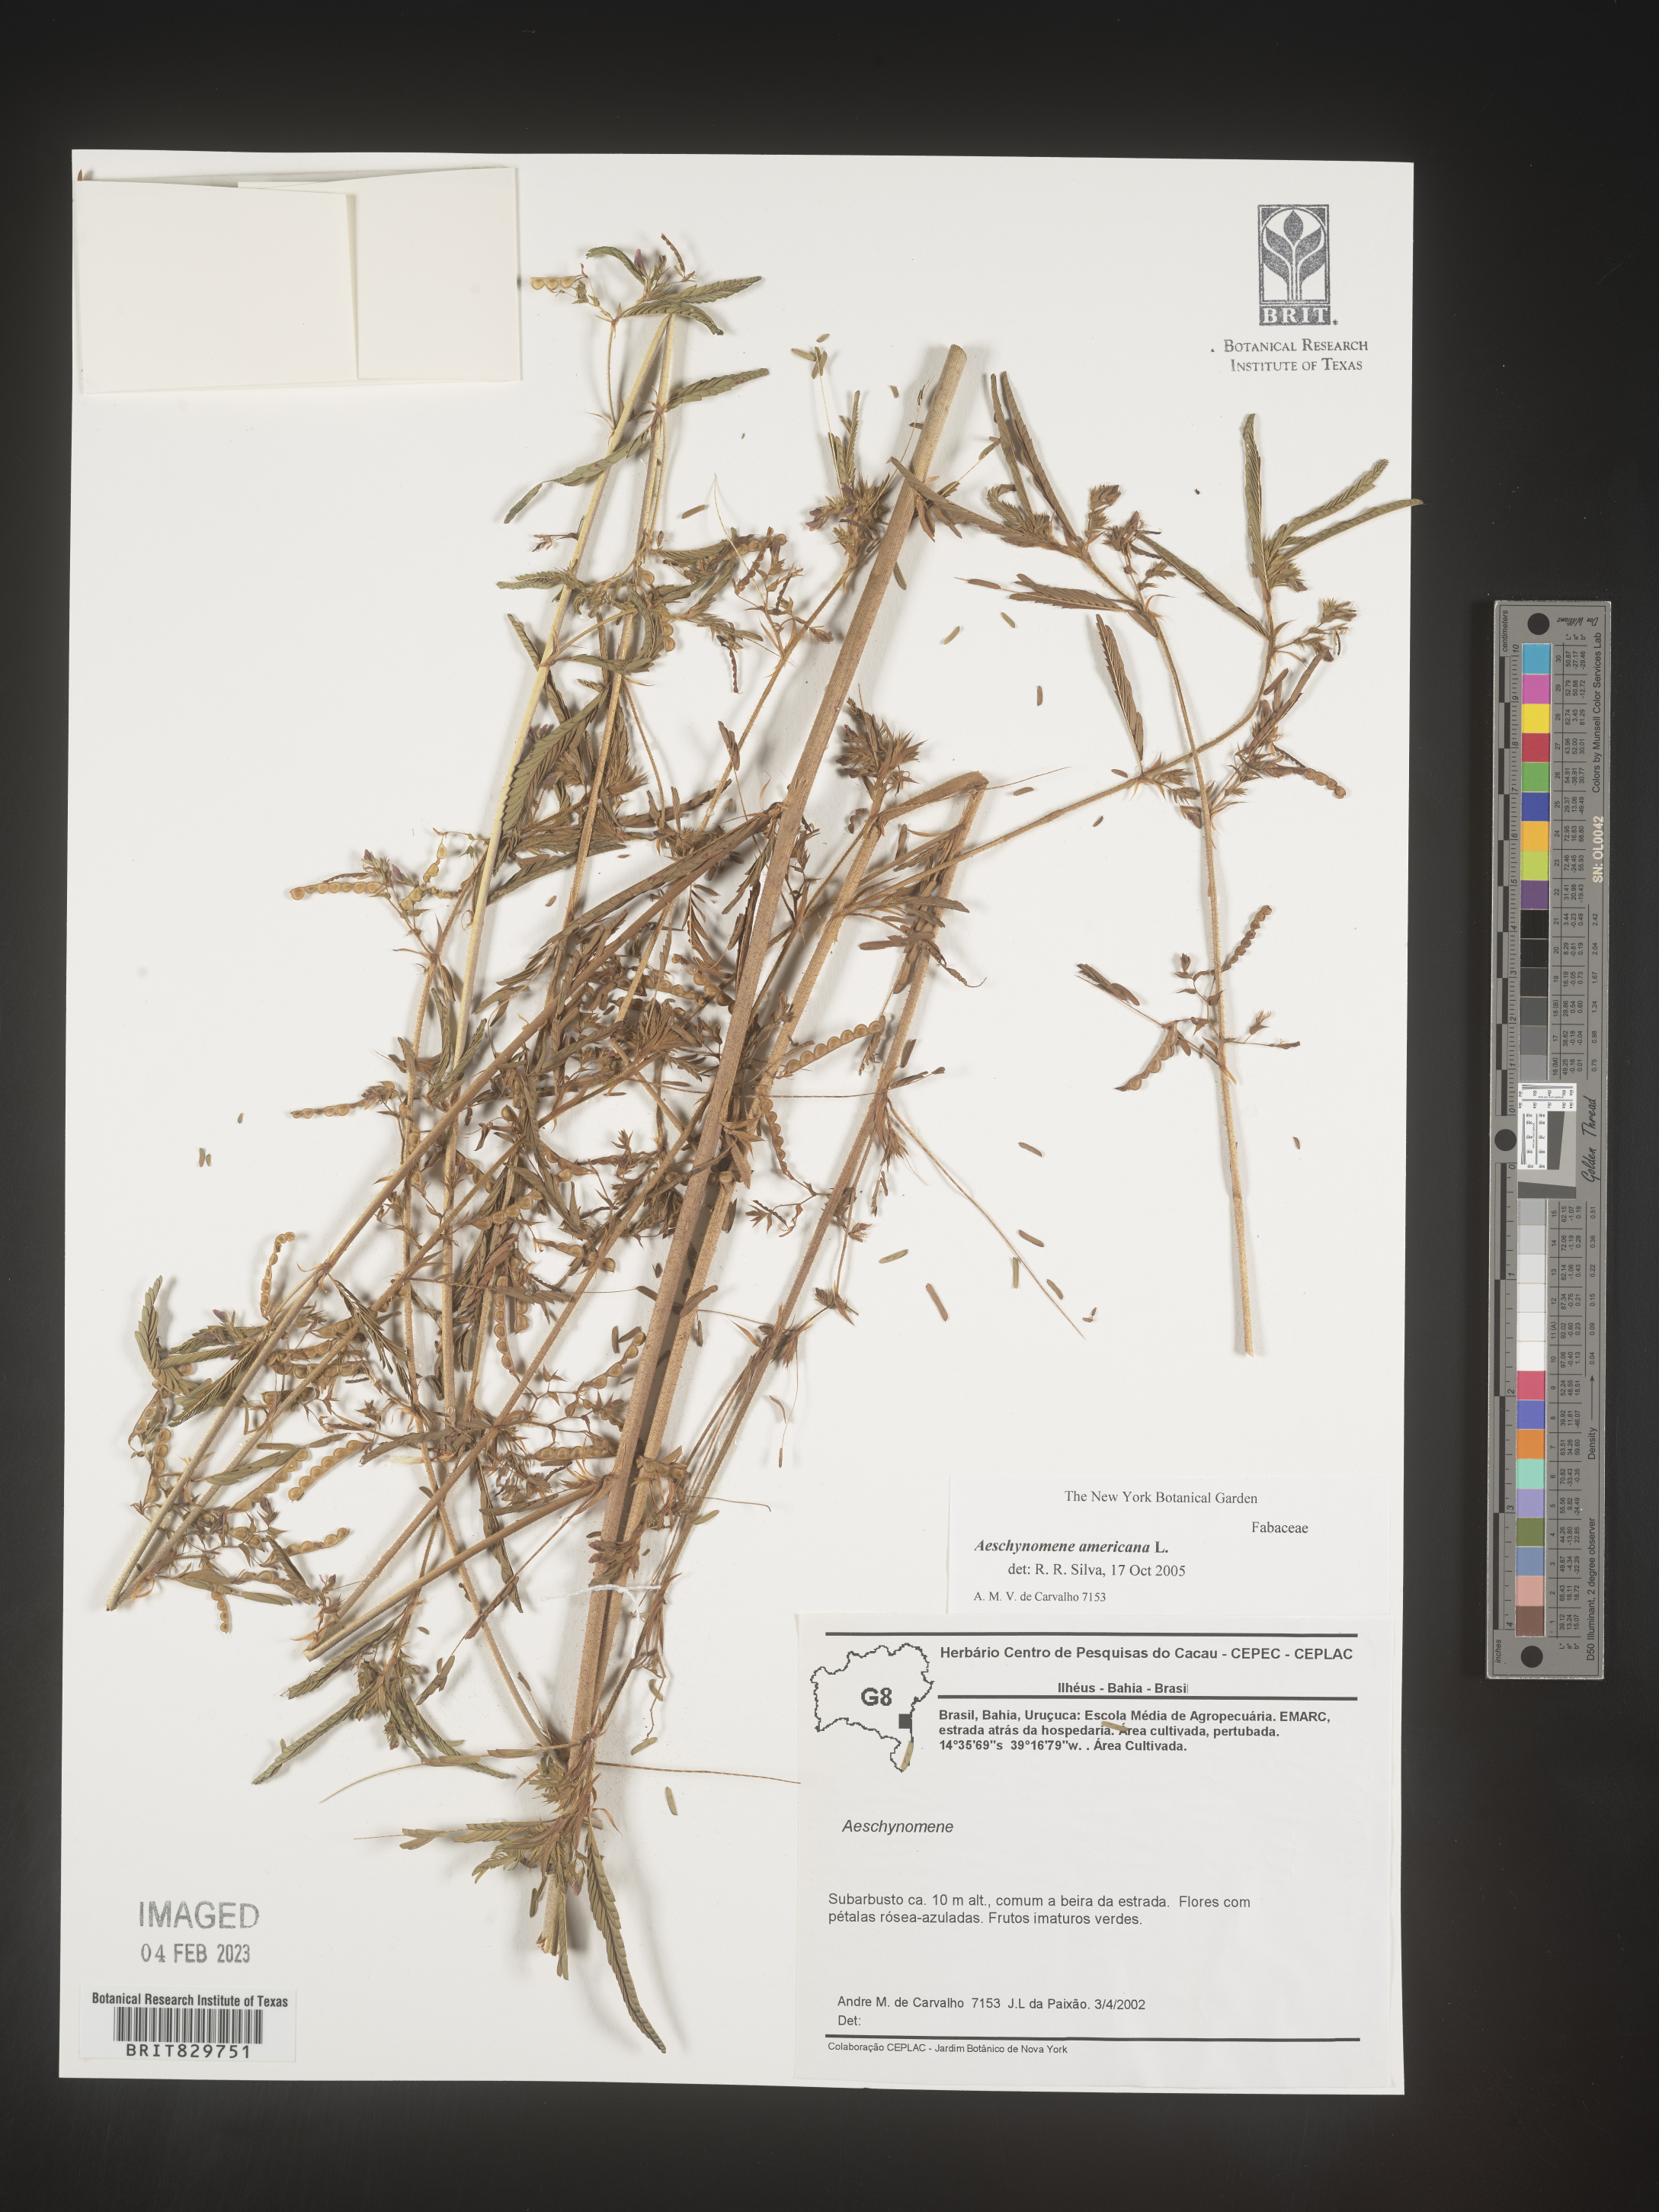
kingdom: Plantae
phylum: Tracheophyta
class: Magnoliopsida
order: Fabales
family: Fabaceae
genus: Aeschynomene
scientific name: Aeschynomene americana
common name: Joint-vetch
